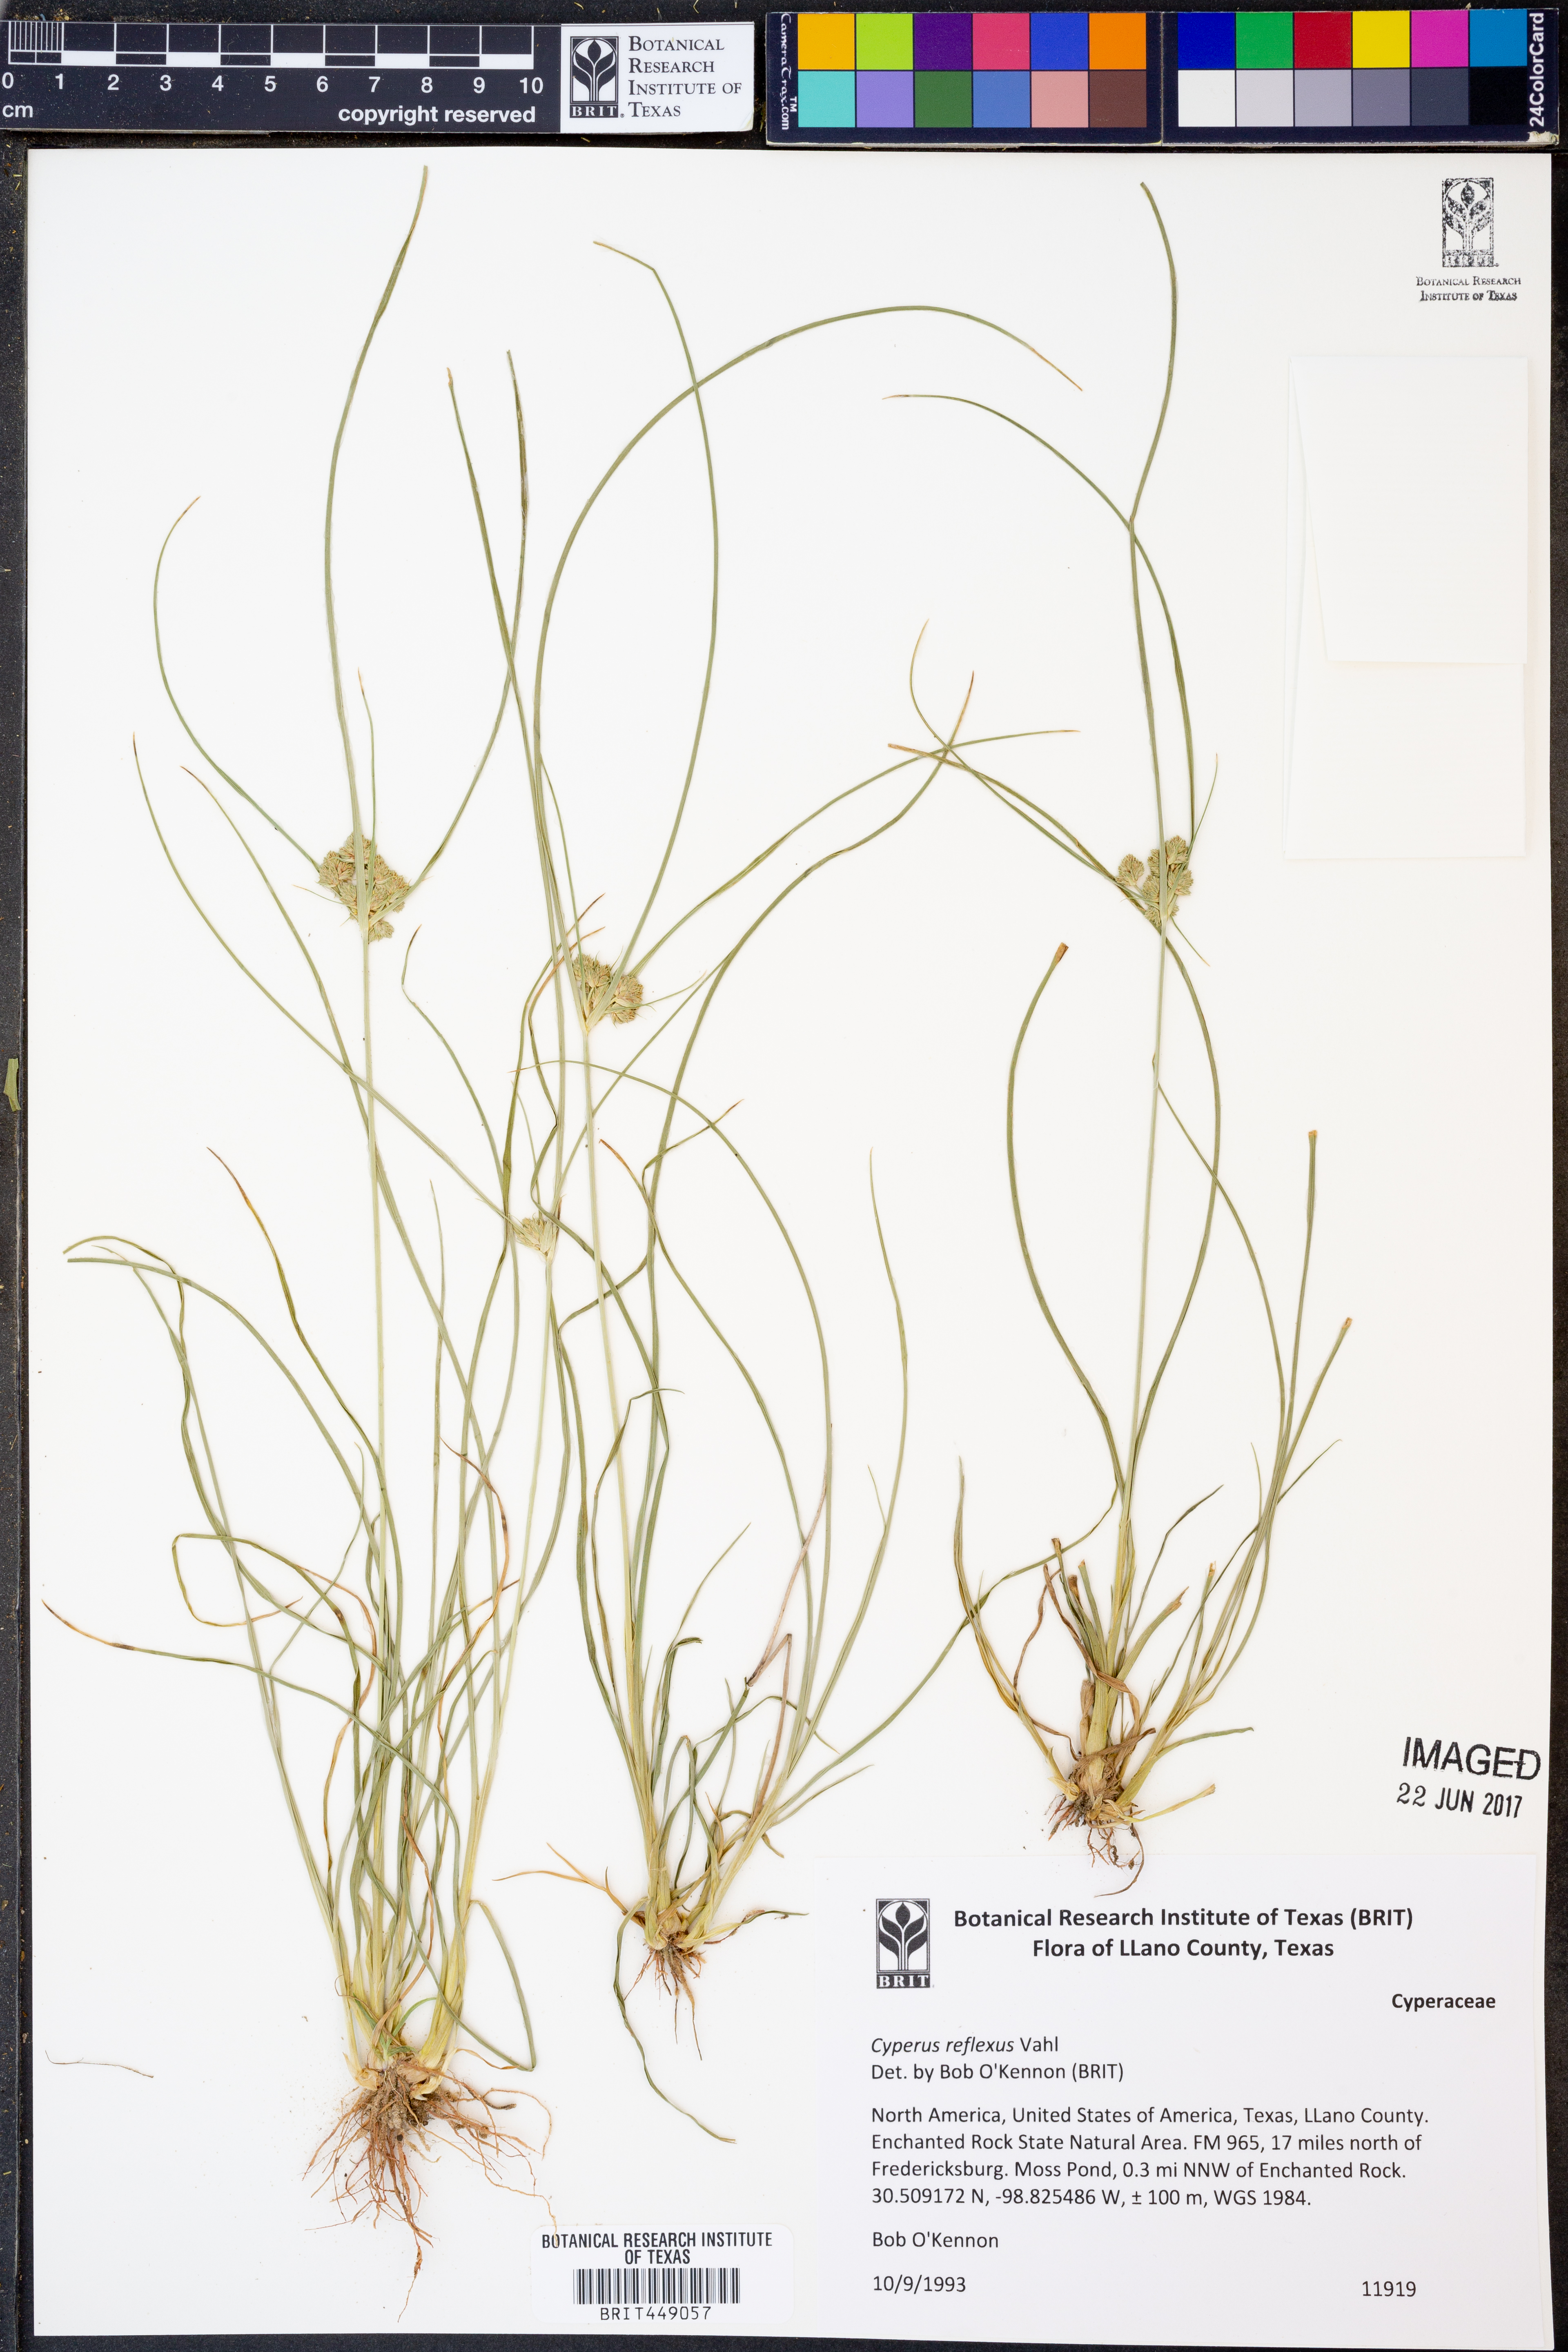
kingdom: Plantae
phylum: Tracheophyta
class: Liliopsida
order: Poales
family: Cyperaceae
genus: Cyperus
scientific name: Cyperus reflexus
